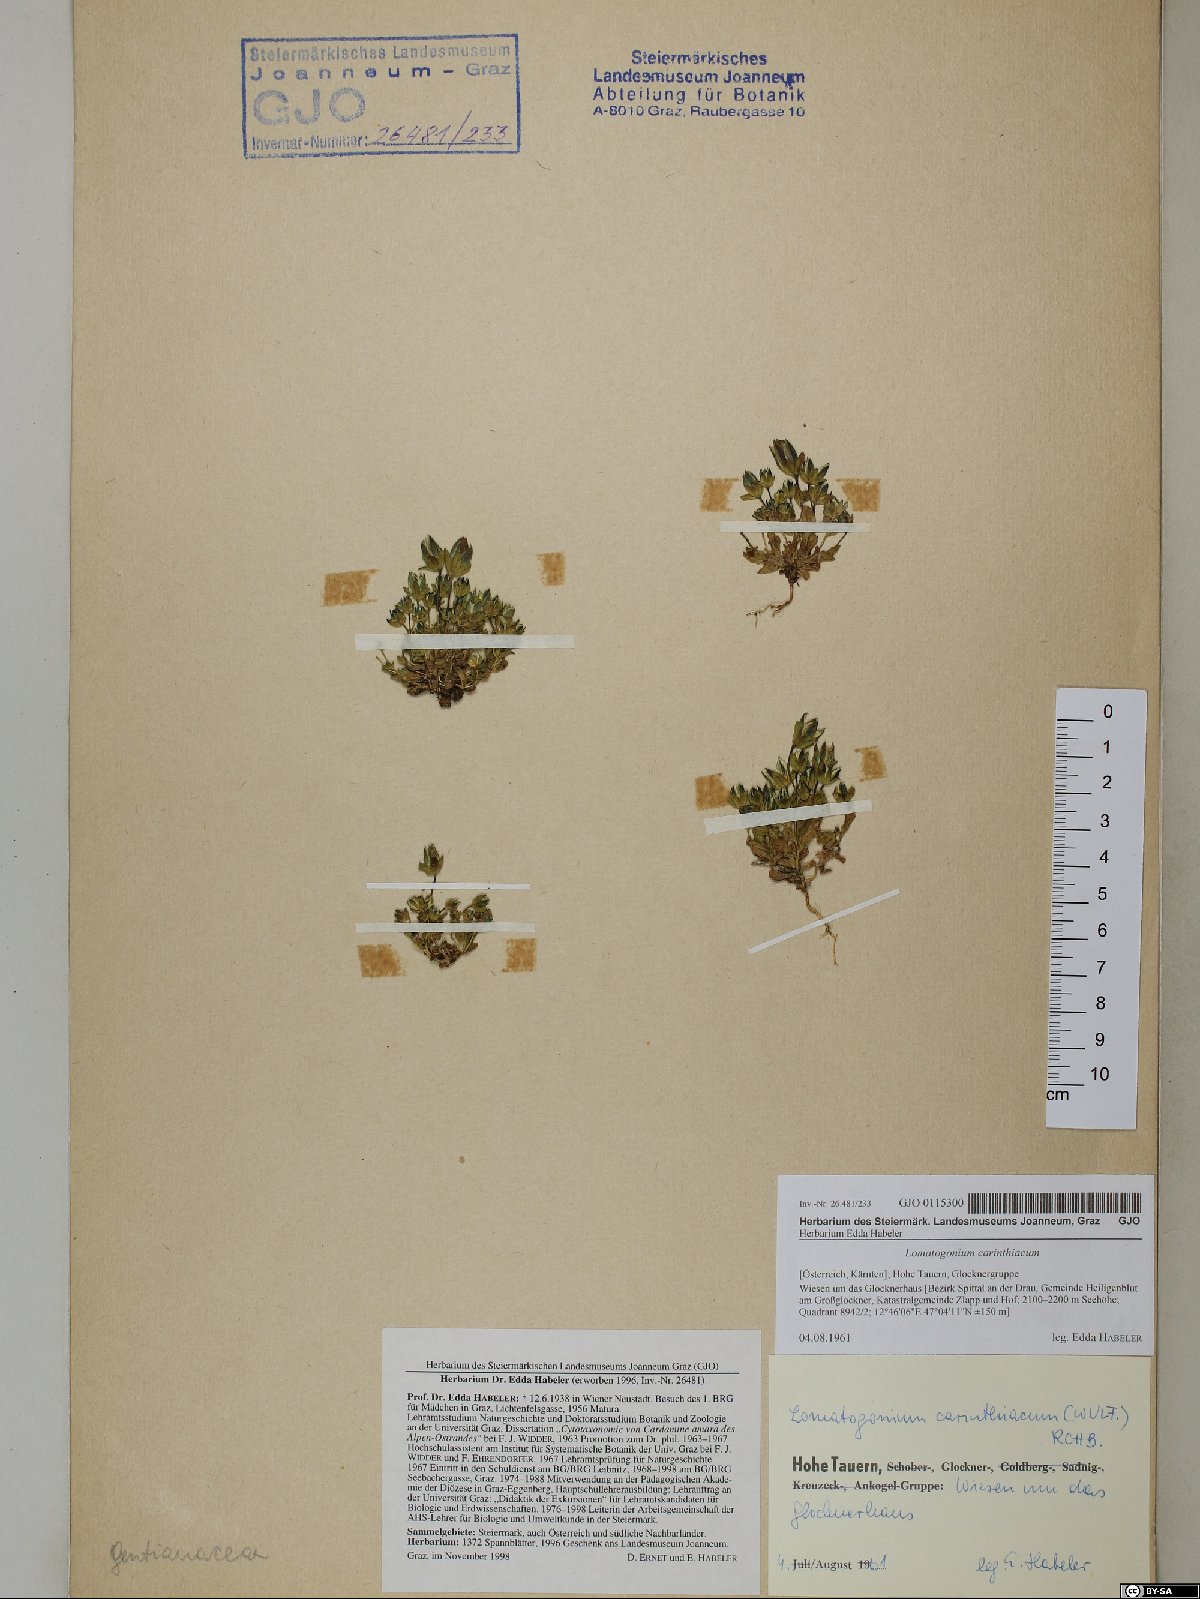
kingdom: Plantae
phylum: Tracheophyta
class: Magnoliopsida
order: Gentianales
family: Gentianaceae
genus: Lomatogonium
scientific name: Lomatogonium carinthiacum
